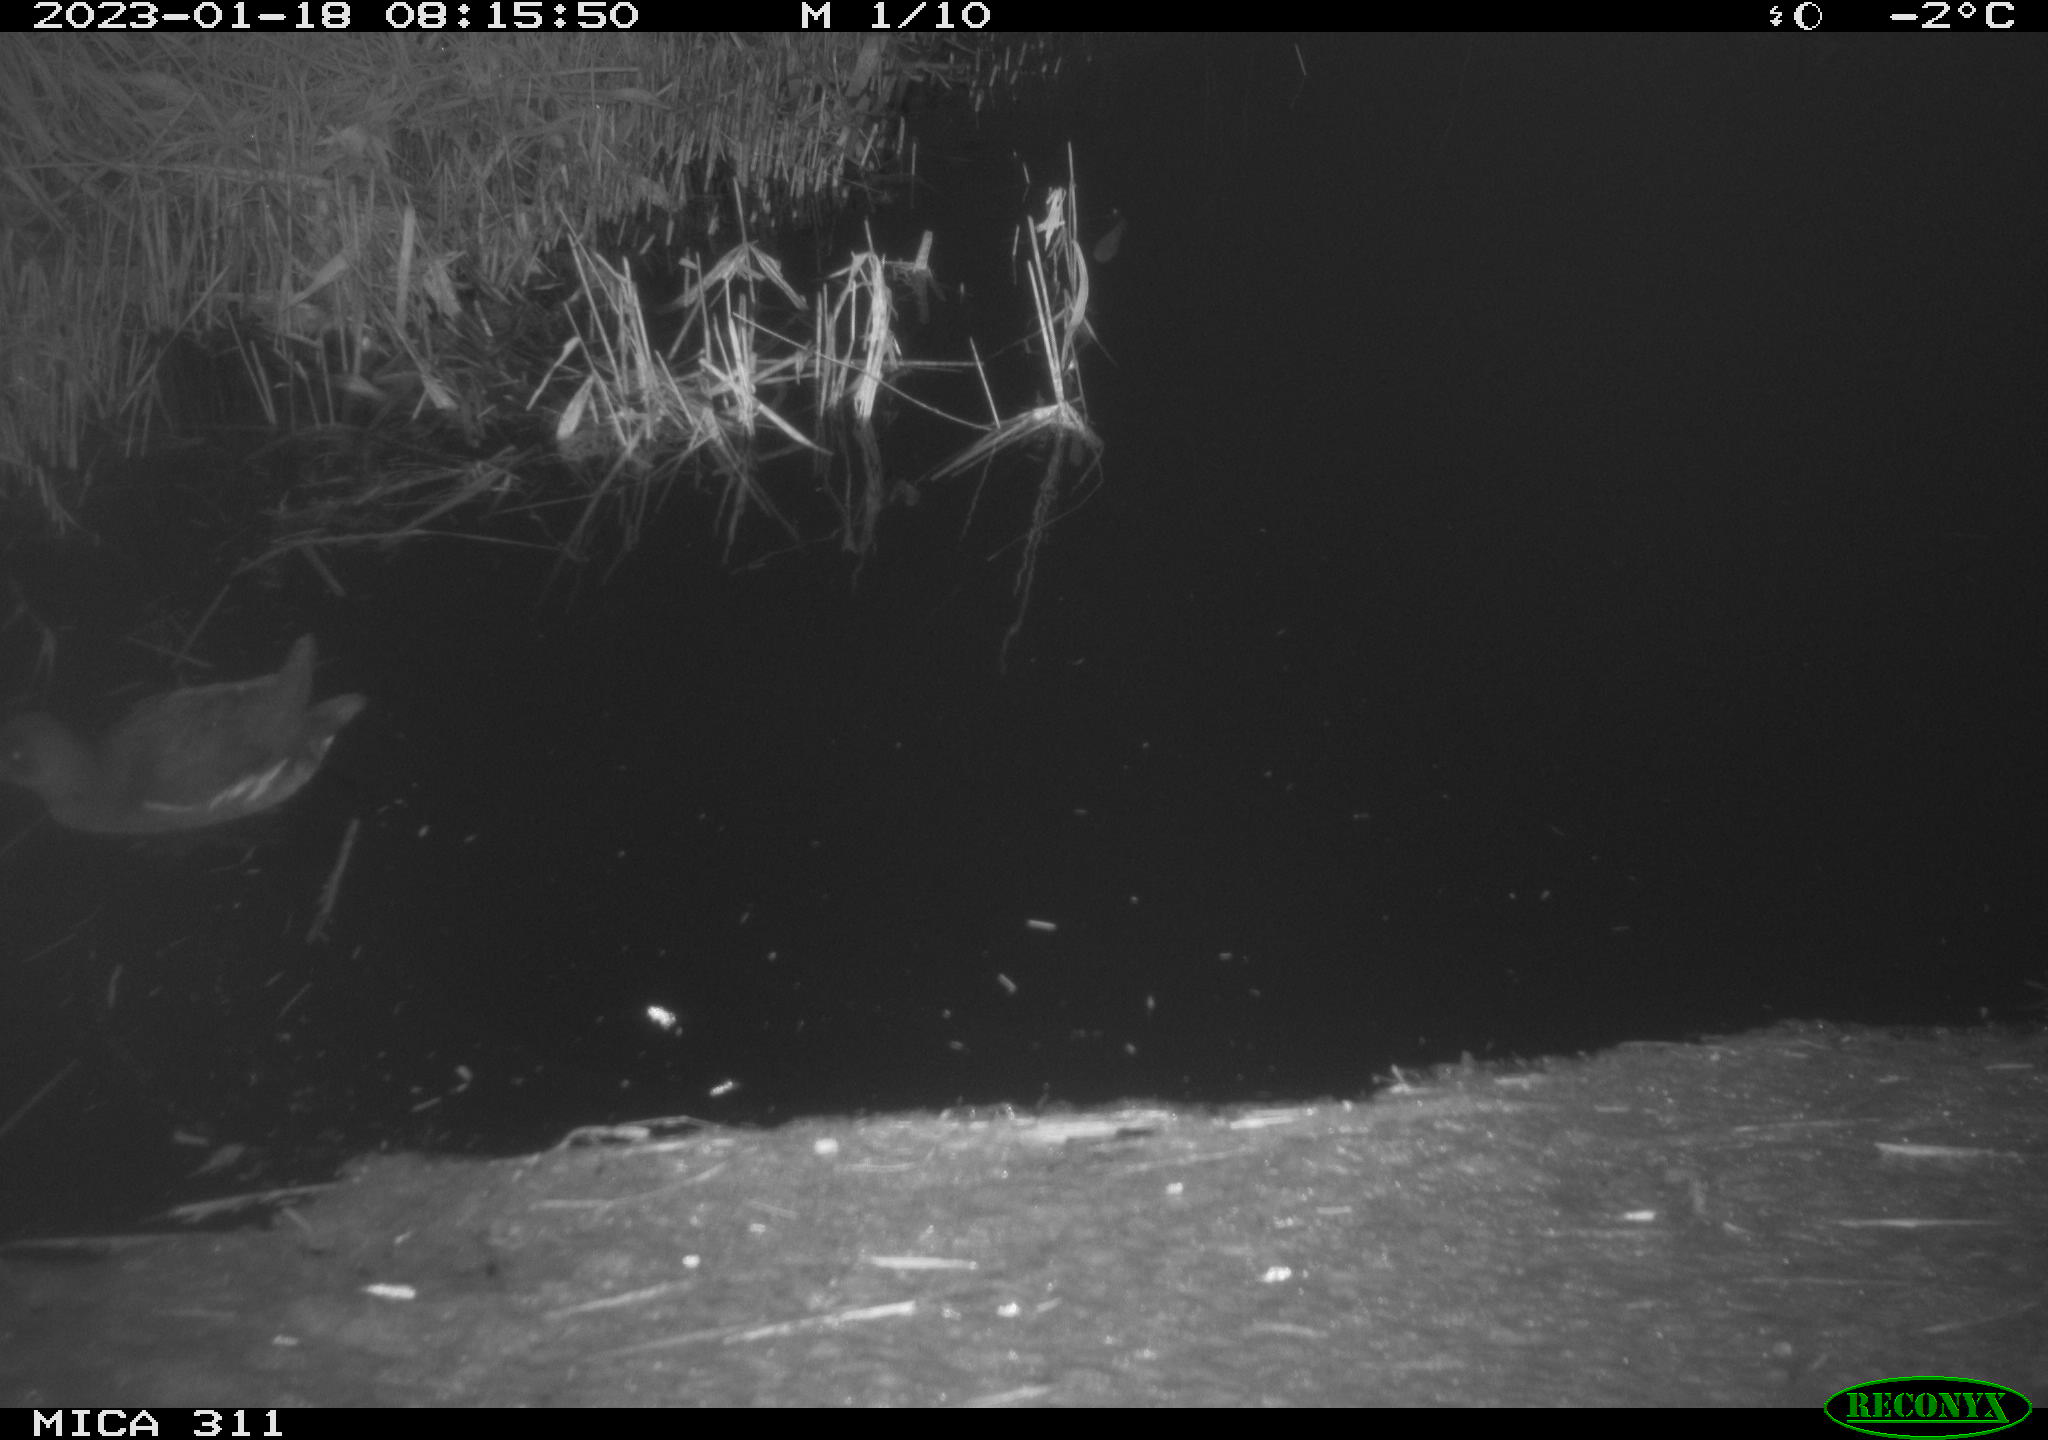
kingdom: Animalia
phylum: Chordata
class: Aves
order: Gruiformes
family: Rallidae
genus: Gallinula
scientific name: Gallinula chloropus
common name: Common moorhen
